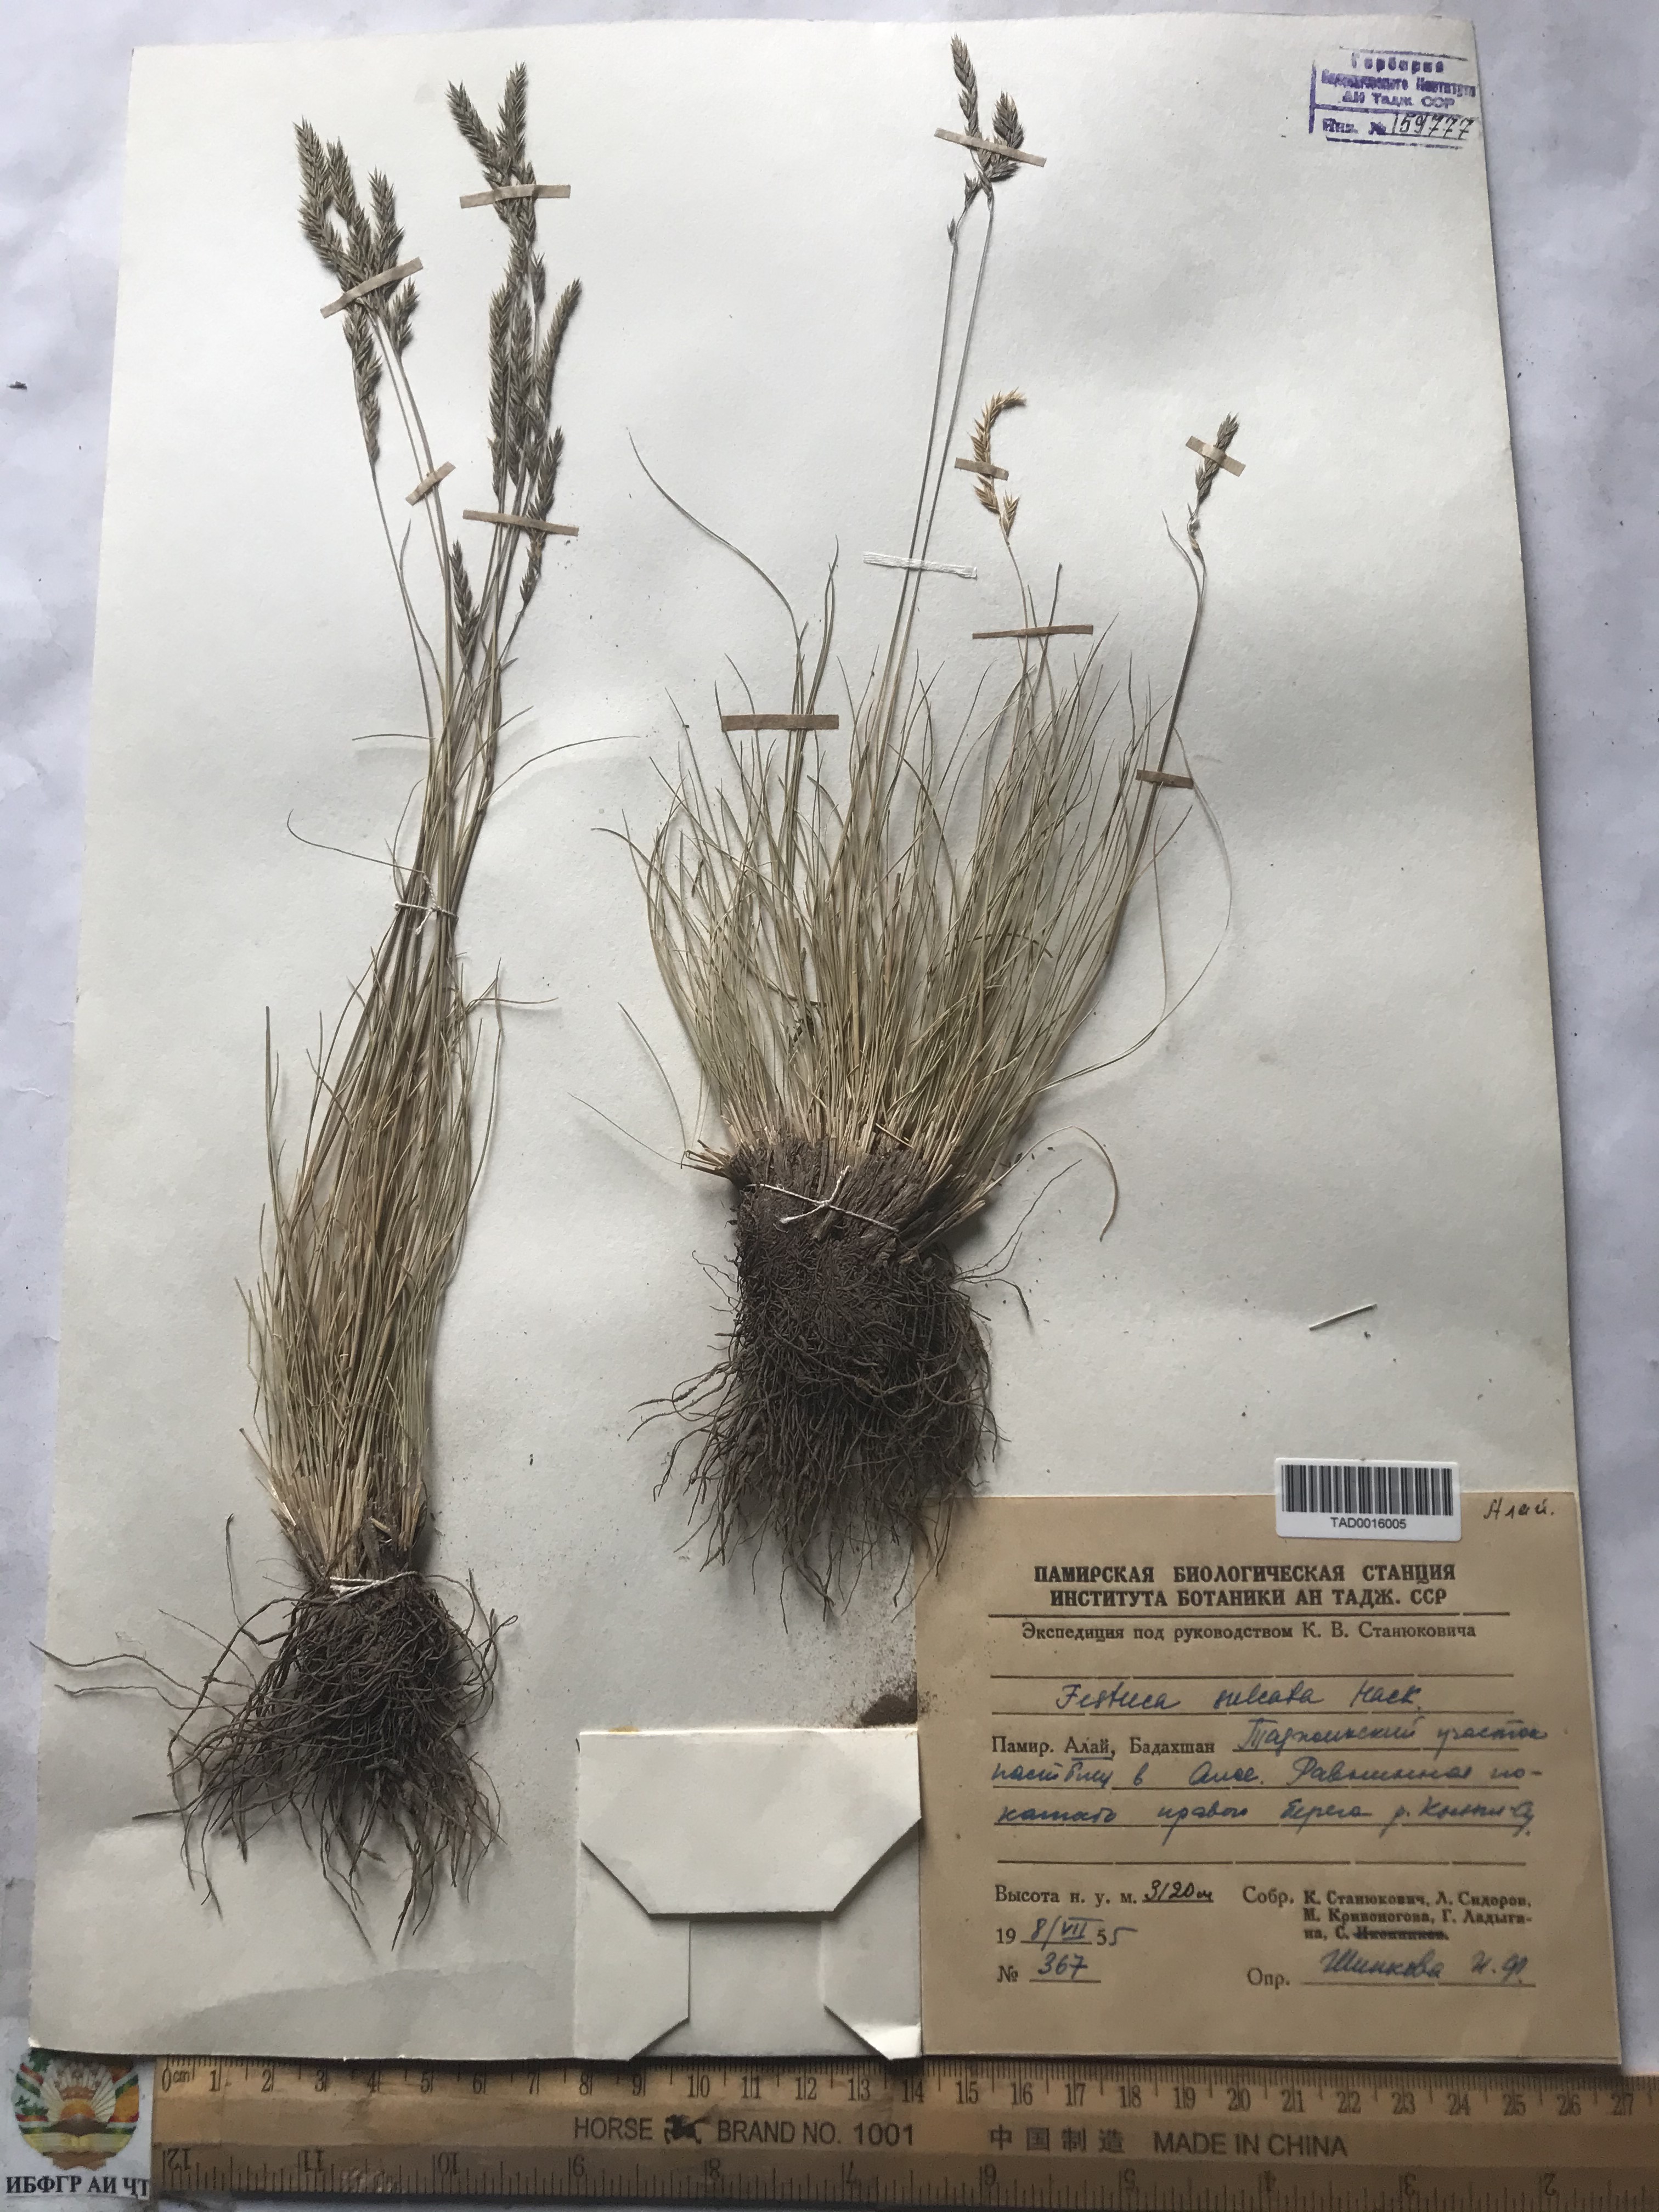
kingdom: Plantae
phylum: Tracheophyta
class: Liliopsida
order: Poales
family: Poaceae
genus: Festuca
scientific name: Festuca sulcata
